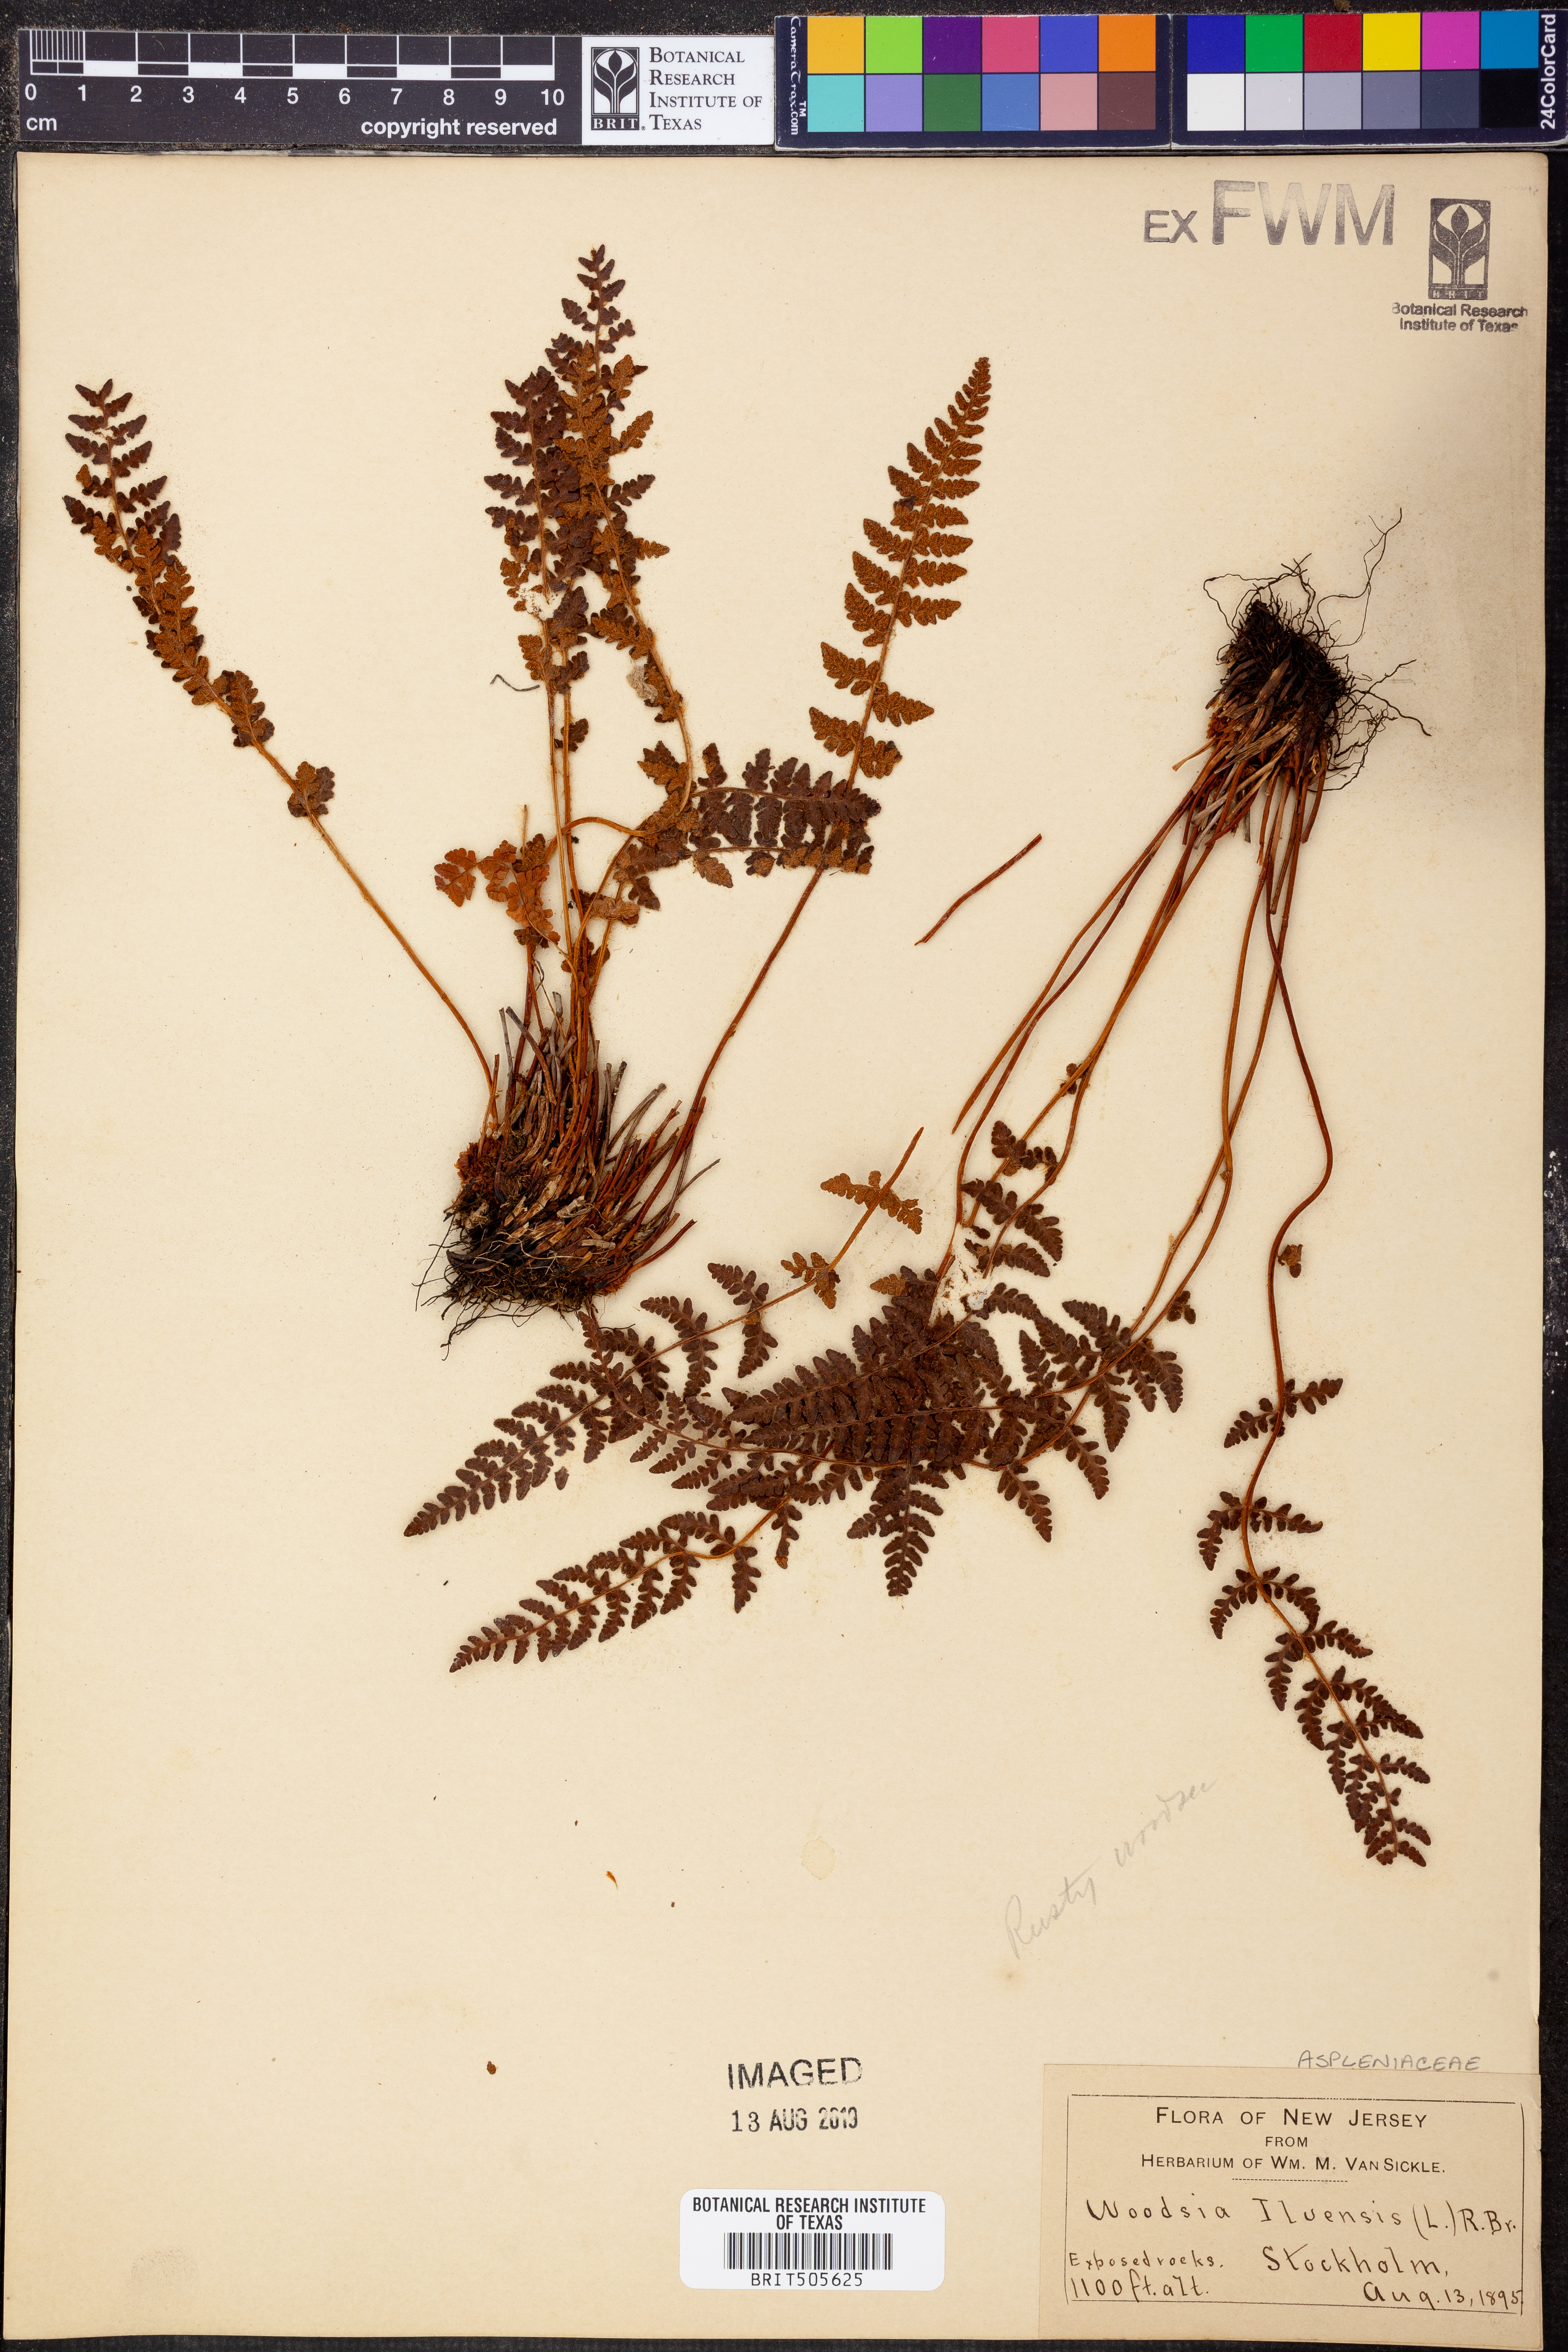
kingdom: Plantae
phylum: Tracheophyta
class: Polypodiopsida
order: Polypodiales
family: Woodsiaceae
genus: Woodsia
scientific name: Woodsia ilvensis
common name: Fragrant woodsia
